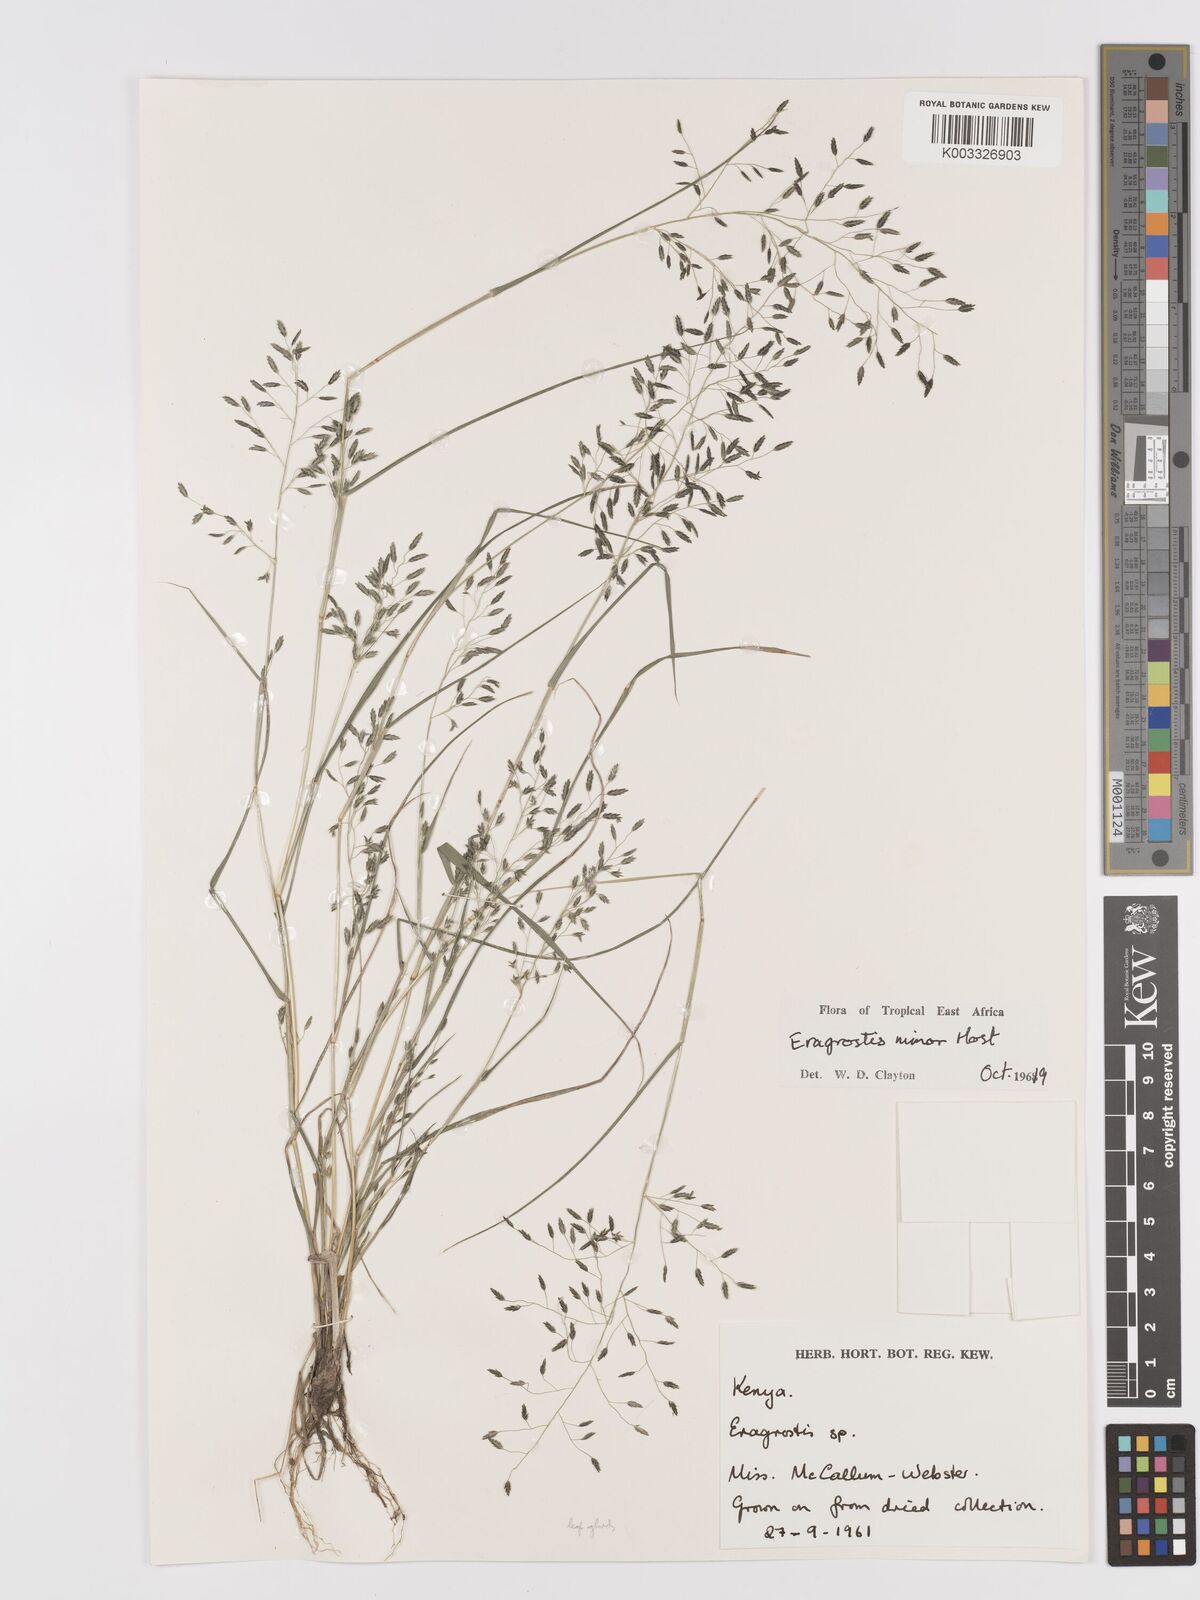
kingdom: Plantae
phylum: Tracheophyta
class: Liliopsida
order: Poales
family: Poaceae
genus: Eragrostis
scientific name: Eragrostis minor
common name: Small love-grass
